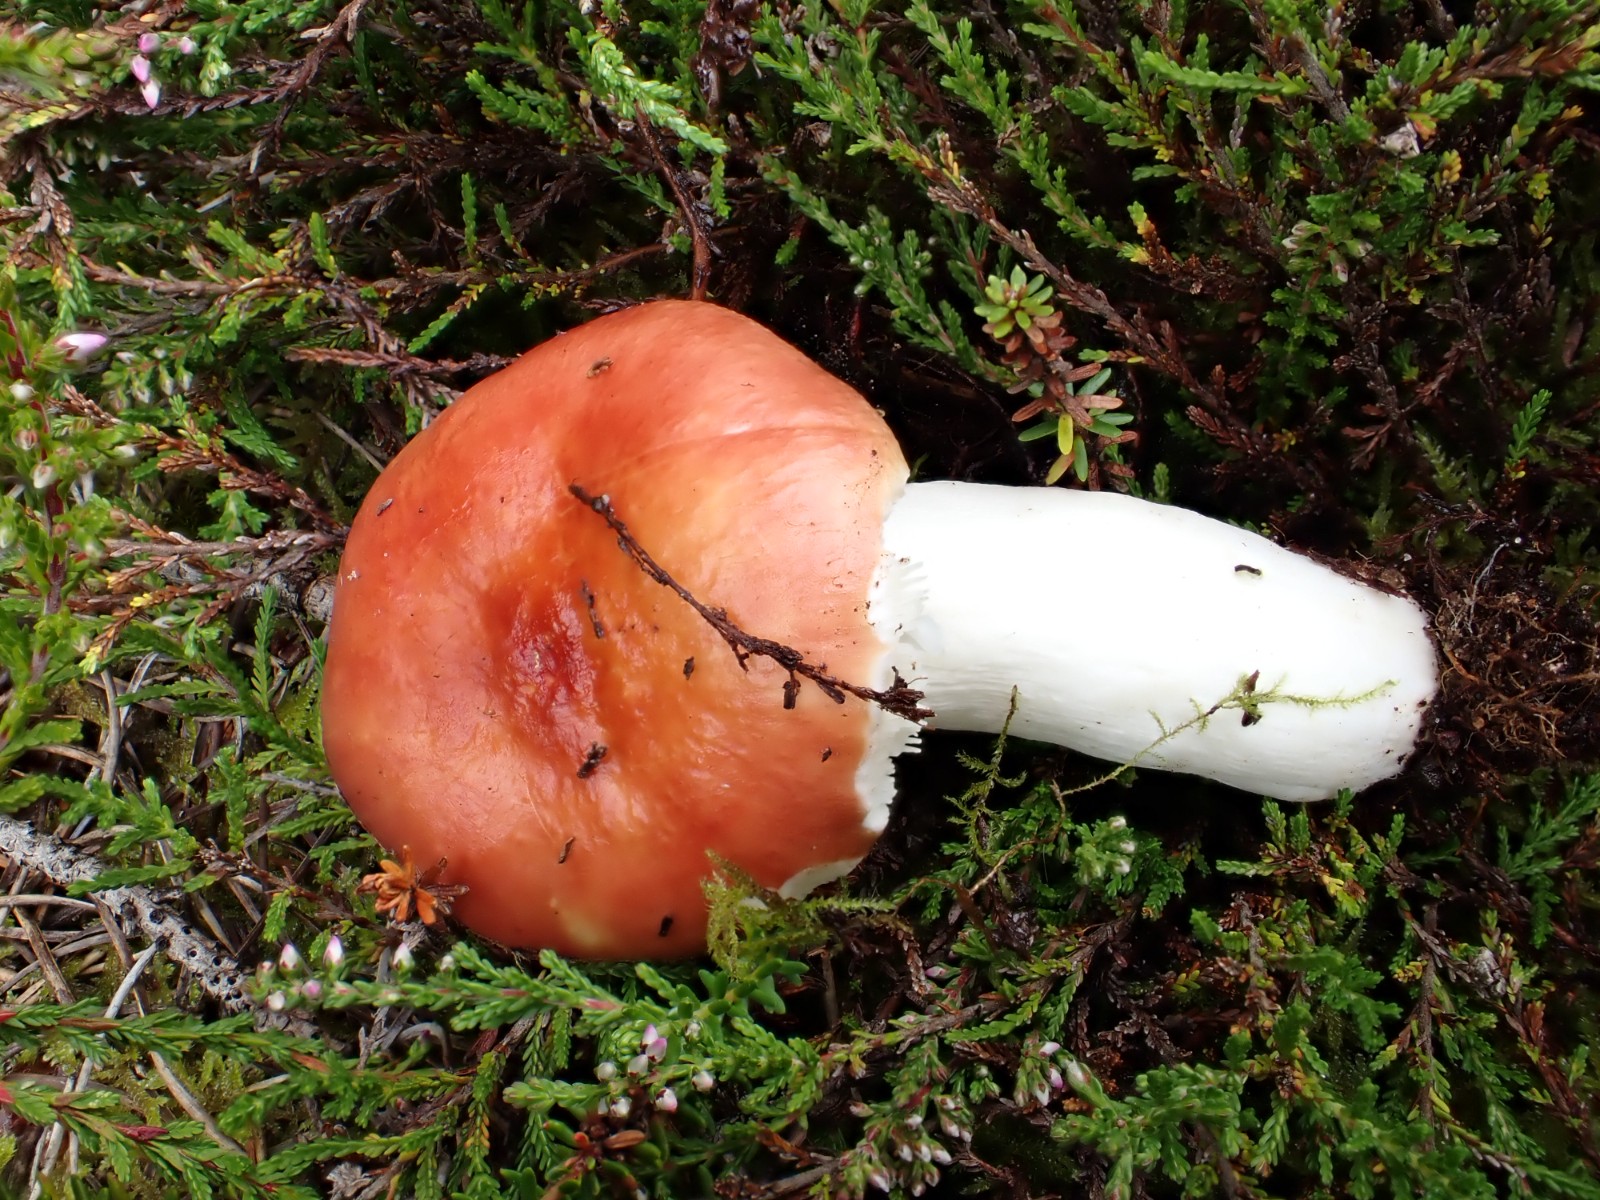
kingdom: Fungi
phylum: Basidiomycota
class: Agaricomycetes
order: Russulales
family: Russulaceae
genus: Russula
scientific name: Russula paludosa
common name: prægtig skørhat
